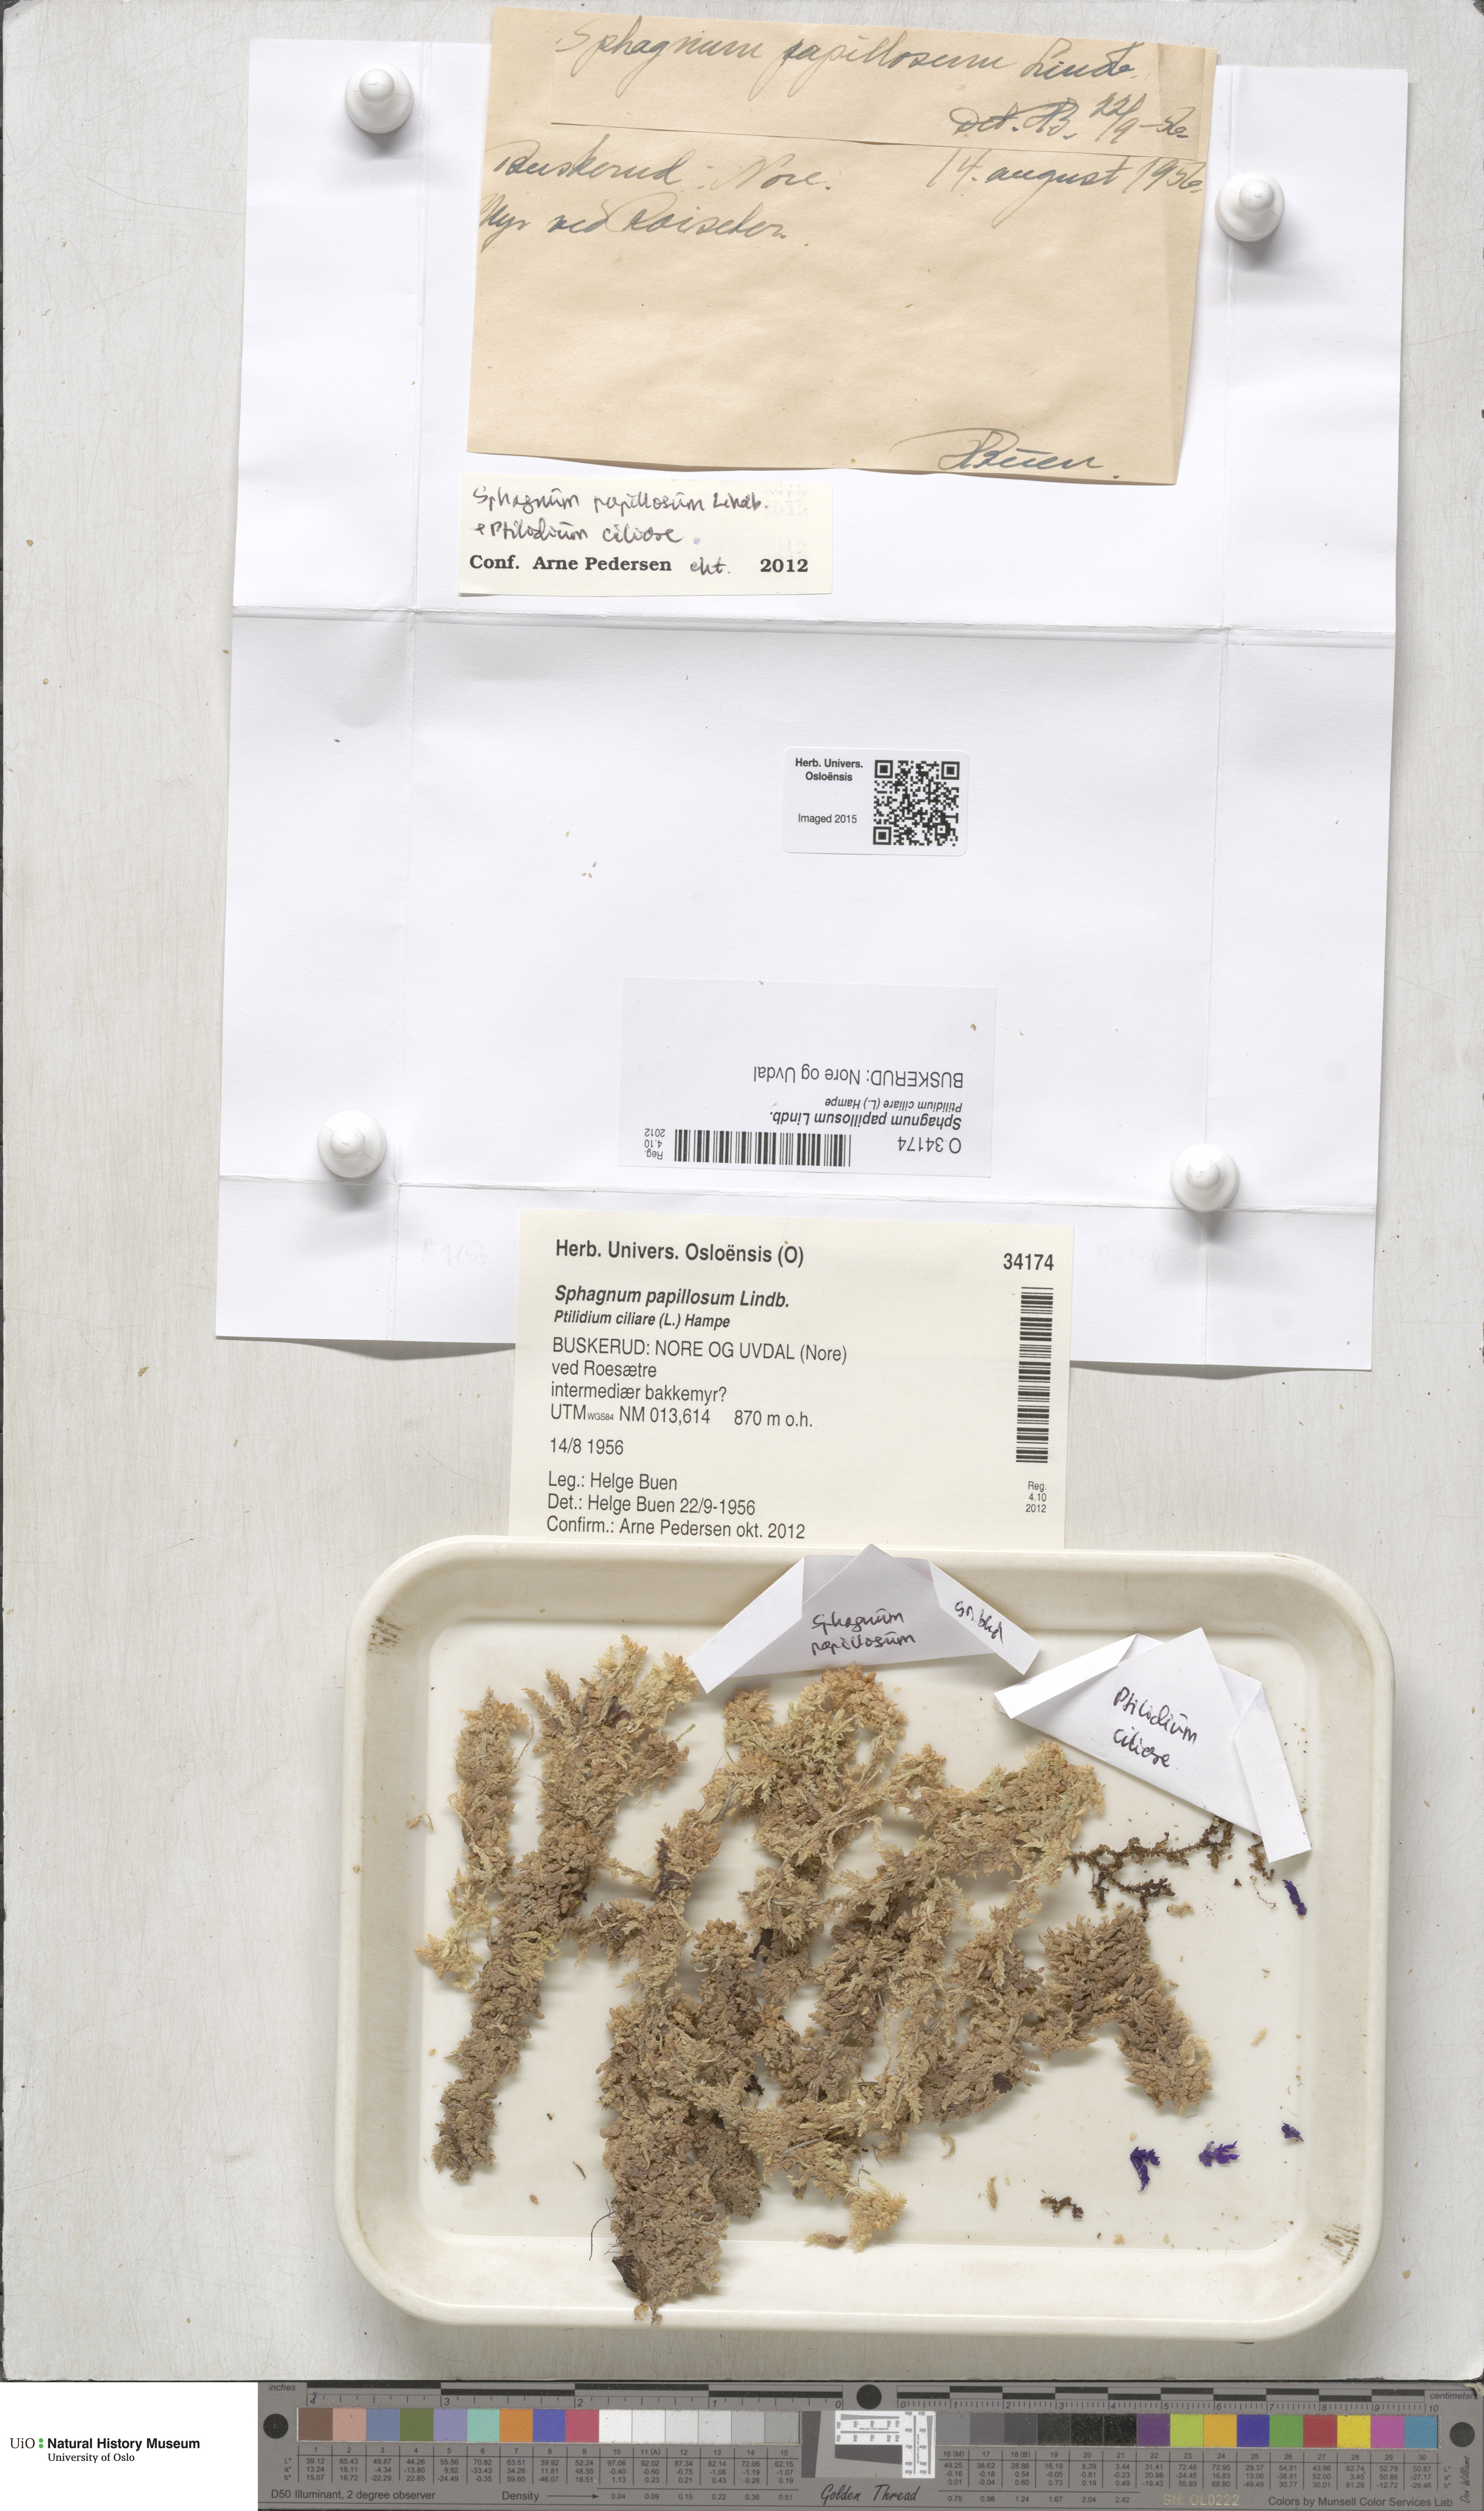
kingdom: Plantae
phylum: Bryophyta
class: Sphagnopsida
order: Sphagnales
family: Sphagnaceae
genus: Sphagnum
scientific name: Sphagnum papillosum
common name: Papillose peat moss
